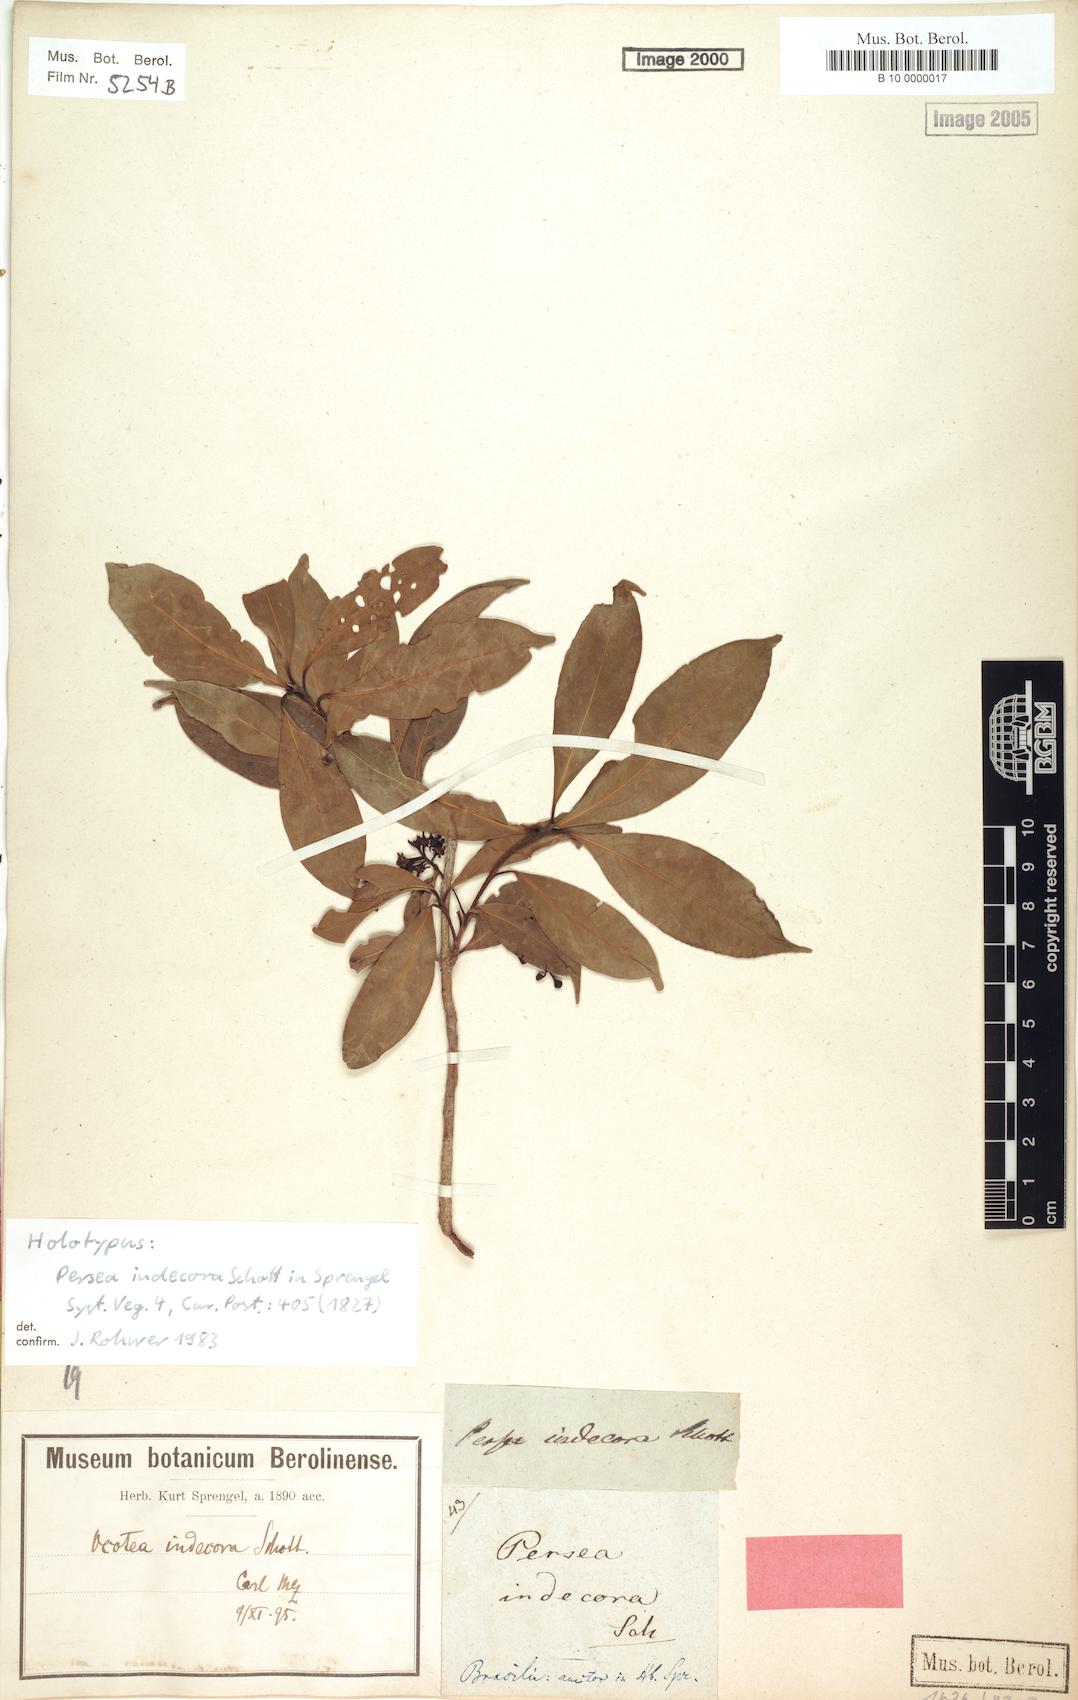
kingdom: Plantae
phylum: Tracheophyta
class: Magnoliopsida
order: Laurales
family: Lauraceae
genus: Mespilodaphne
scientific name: Mespilodaphne indecora
